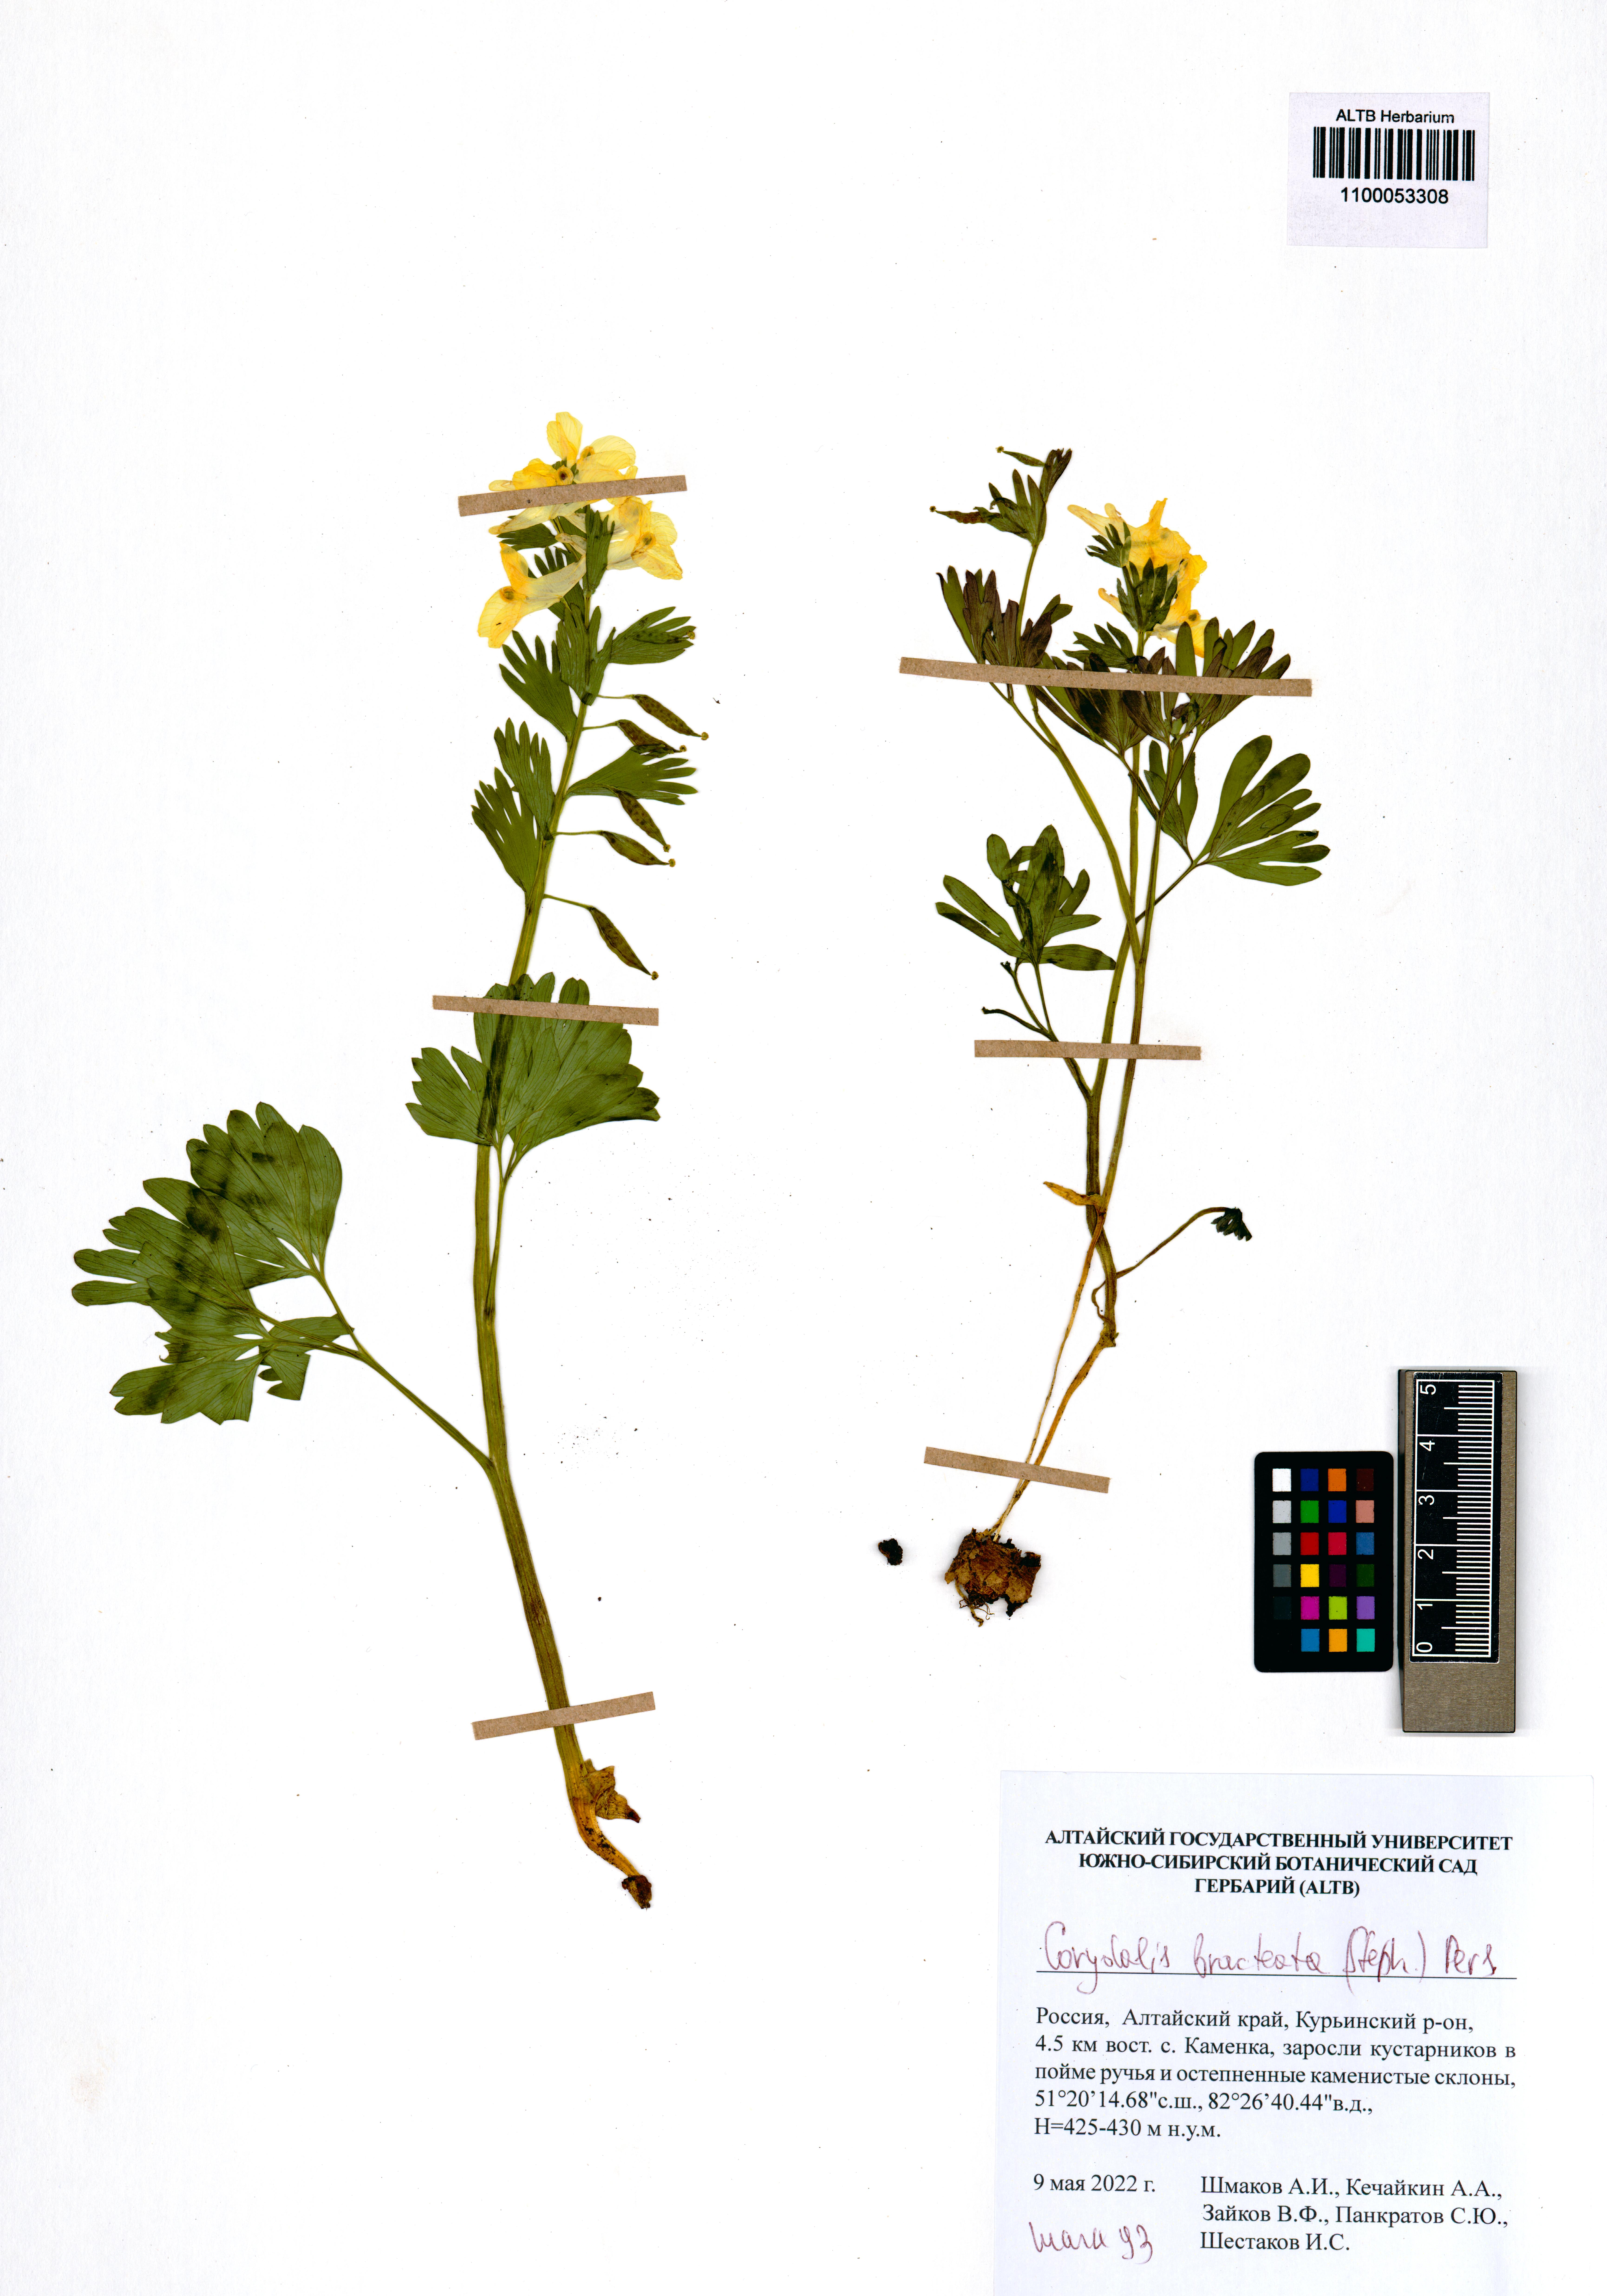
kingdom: Plantae
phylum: Tracheophyta
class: Magnoliopsida
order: Ranunculales
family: Papaveraceae
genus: Corydalis
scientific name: Corydalis bracteata
